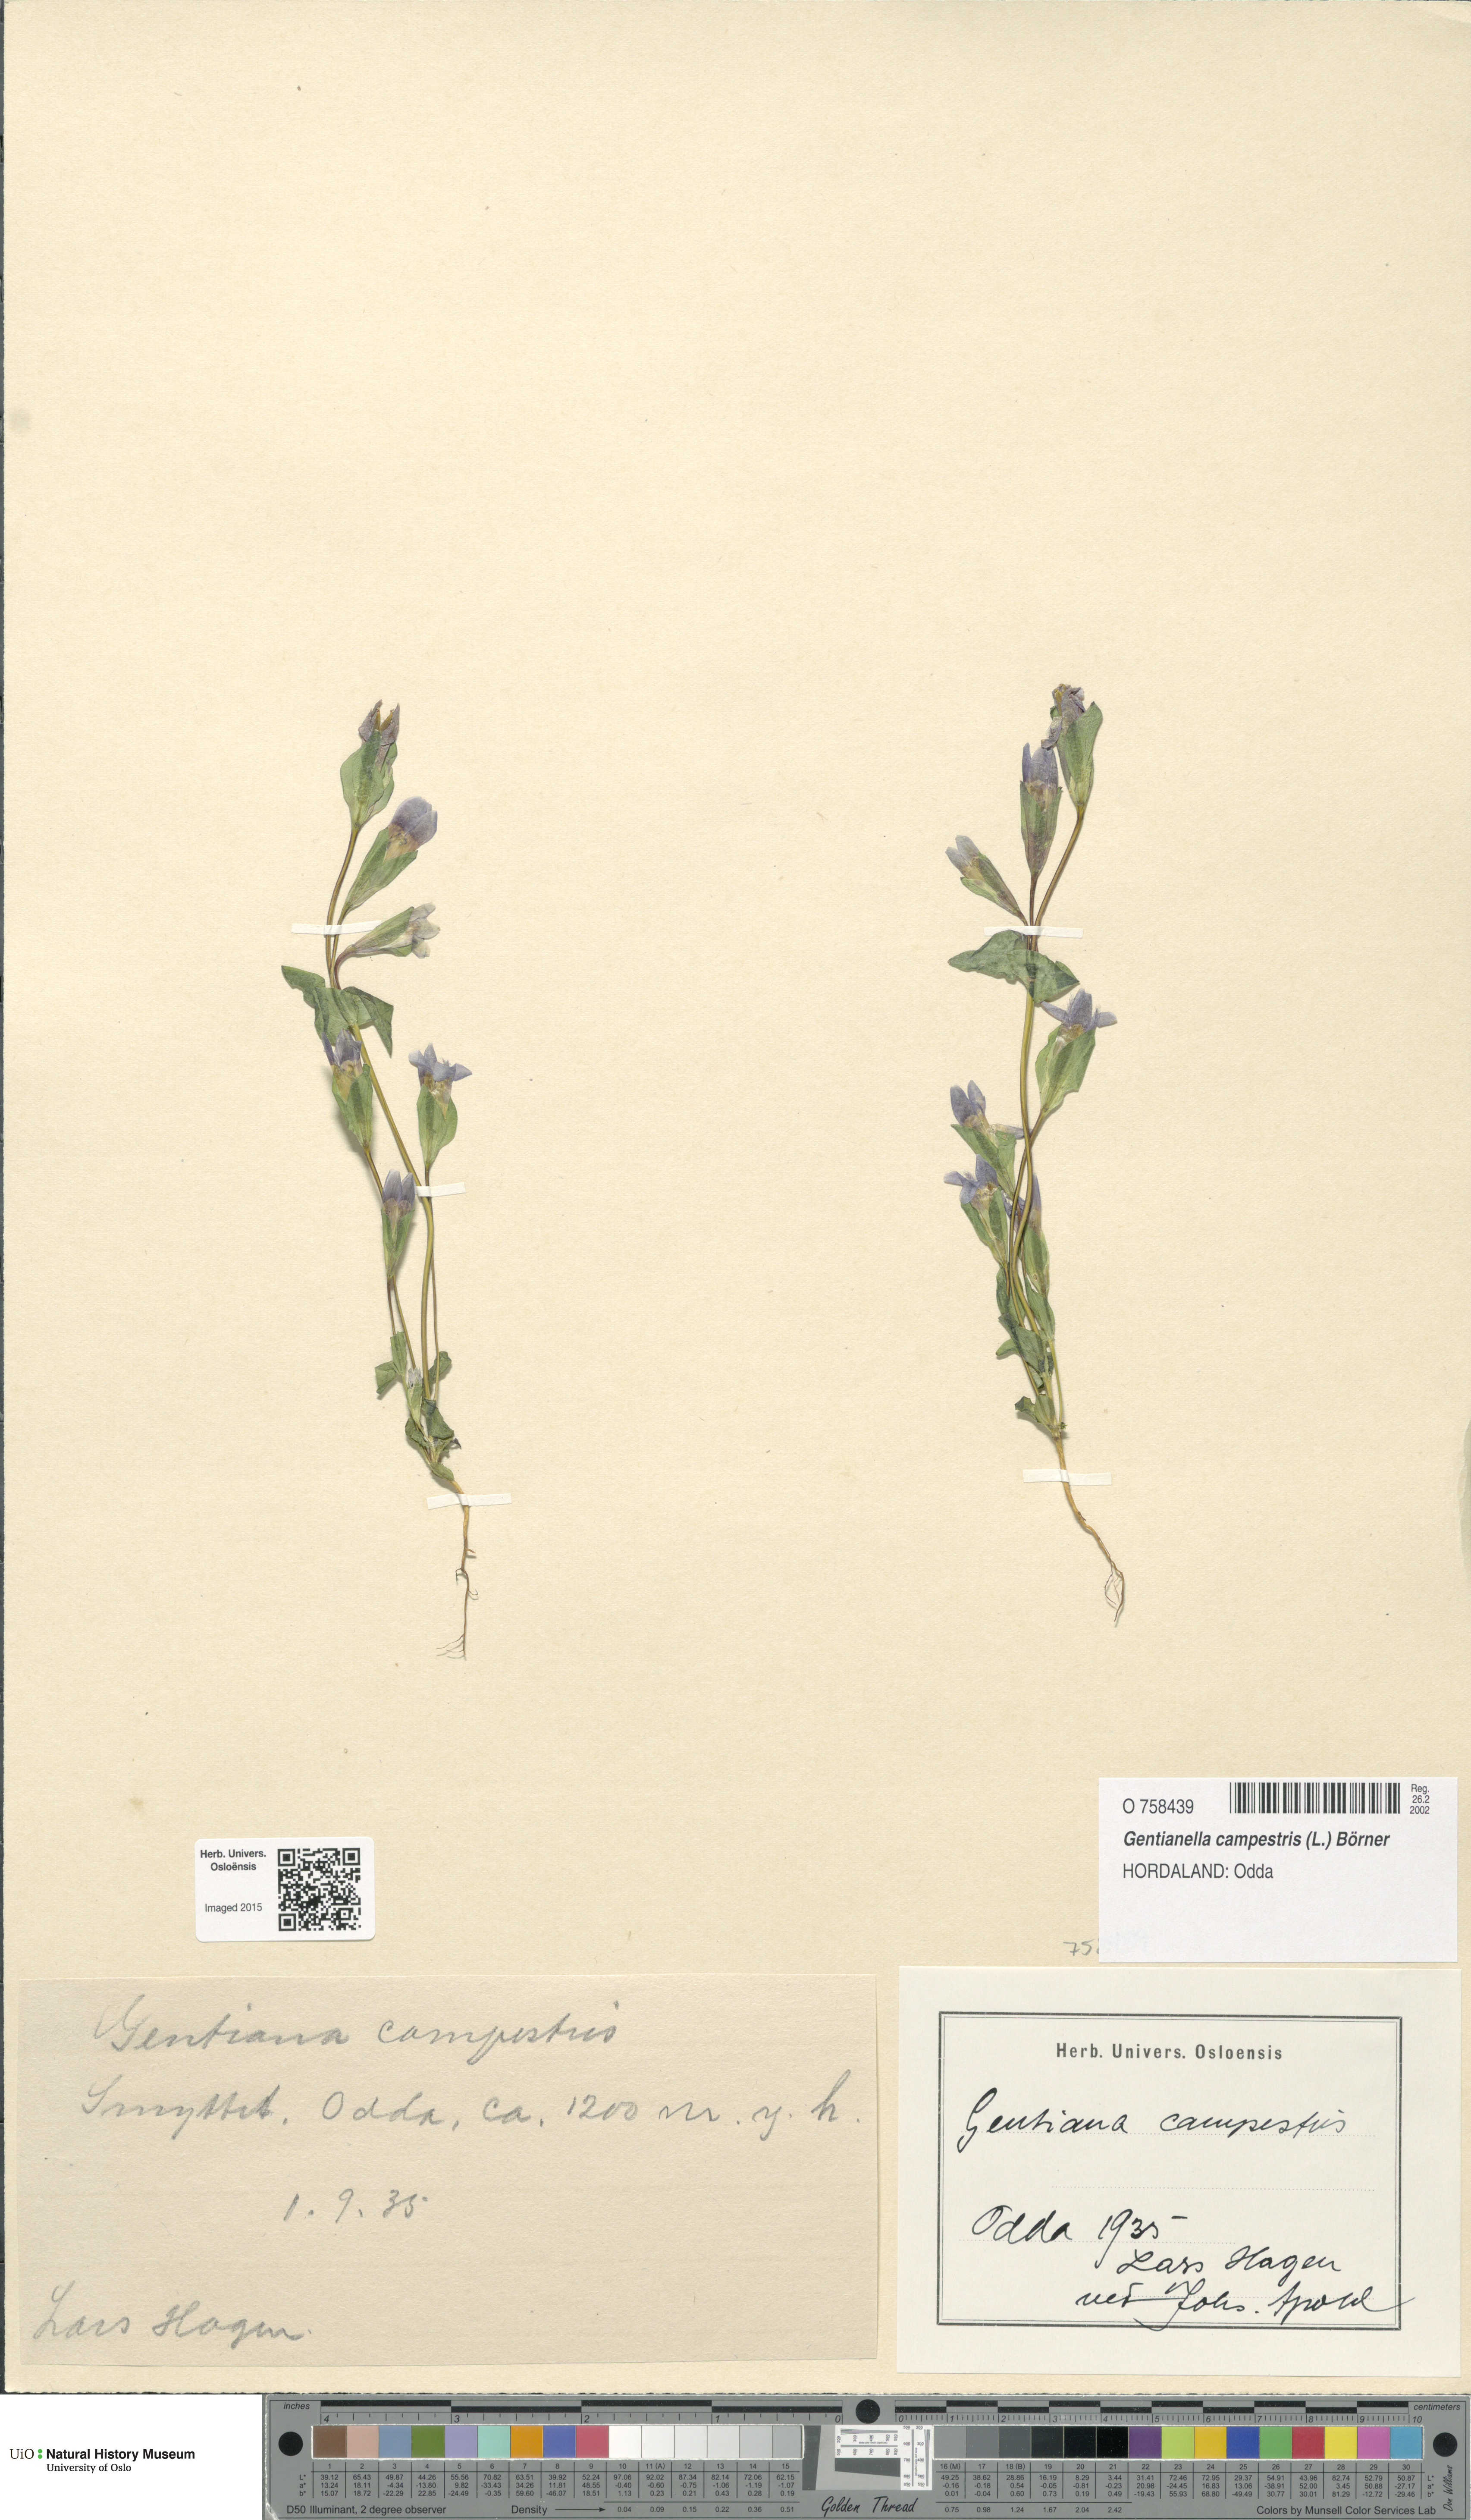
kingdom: Plantae
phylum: Tracheophyta
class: Magnoliopsida
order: Gentianales
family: Gentianaceae
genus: Gentianella
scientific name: Gentianella campestris
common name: Field gentian
